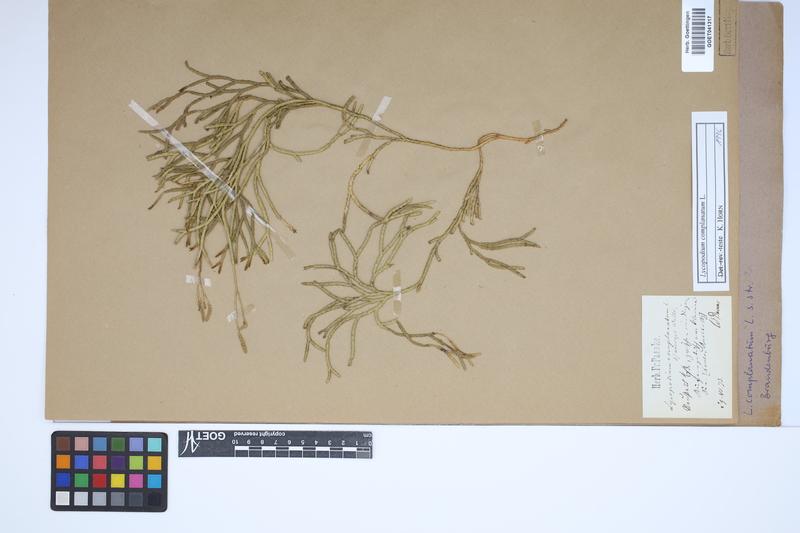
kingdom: Plantae
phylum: Tracheophyta
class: Lycopodiopsida
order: Lycopodiales
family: Lycopodiaceae
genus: Diphasiastrum
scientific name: Diphasiastrum complanatum
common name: Northern running-pine
